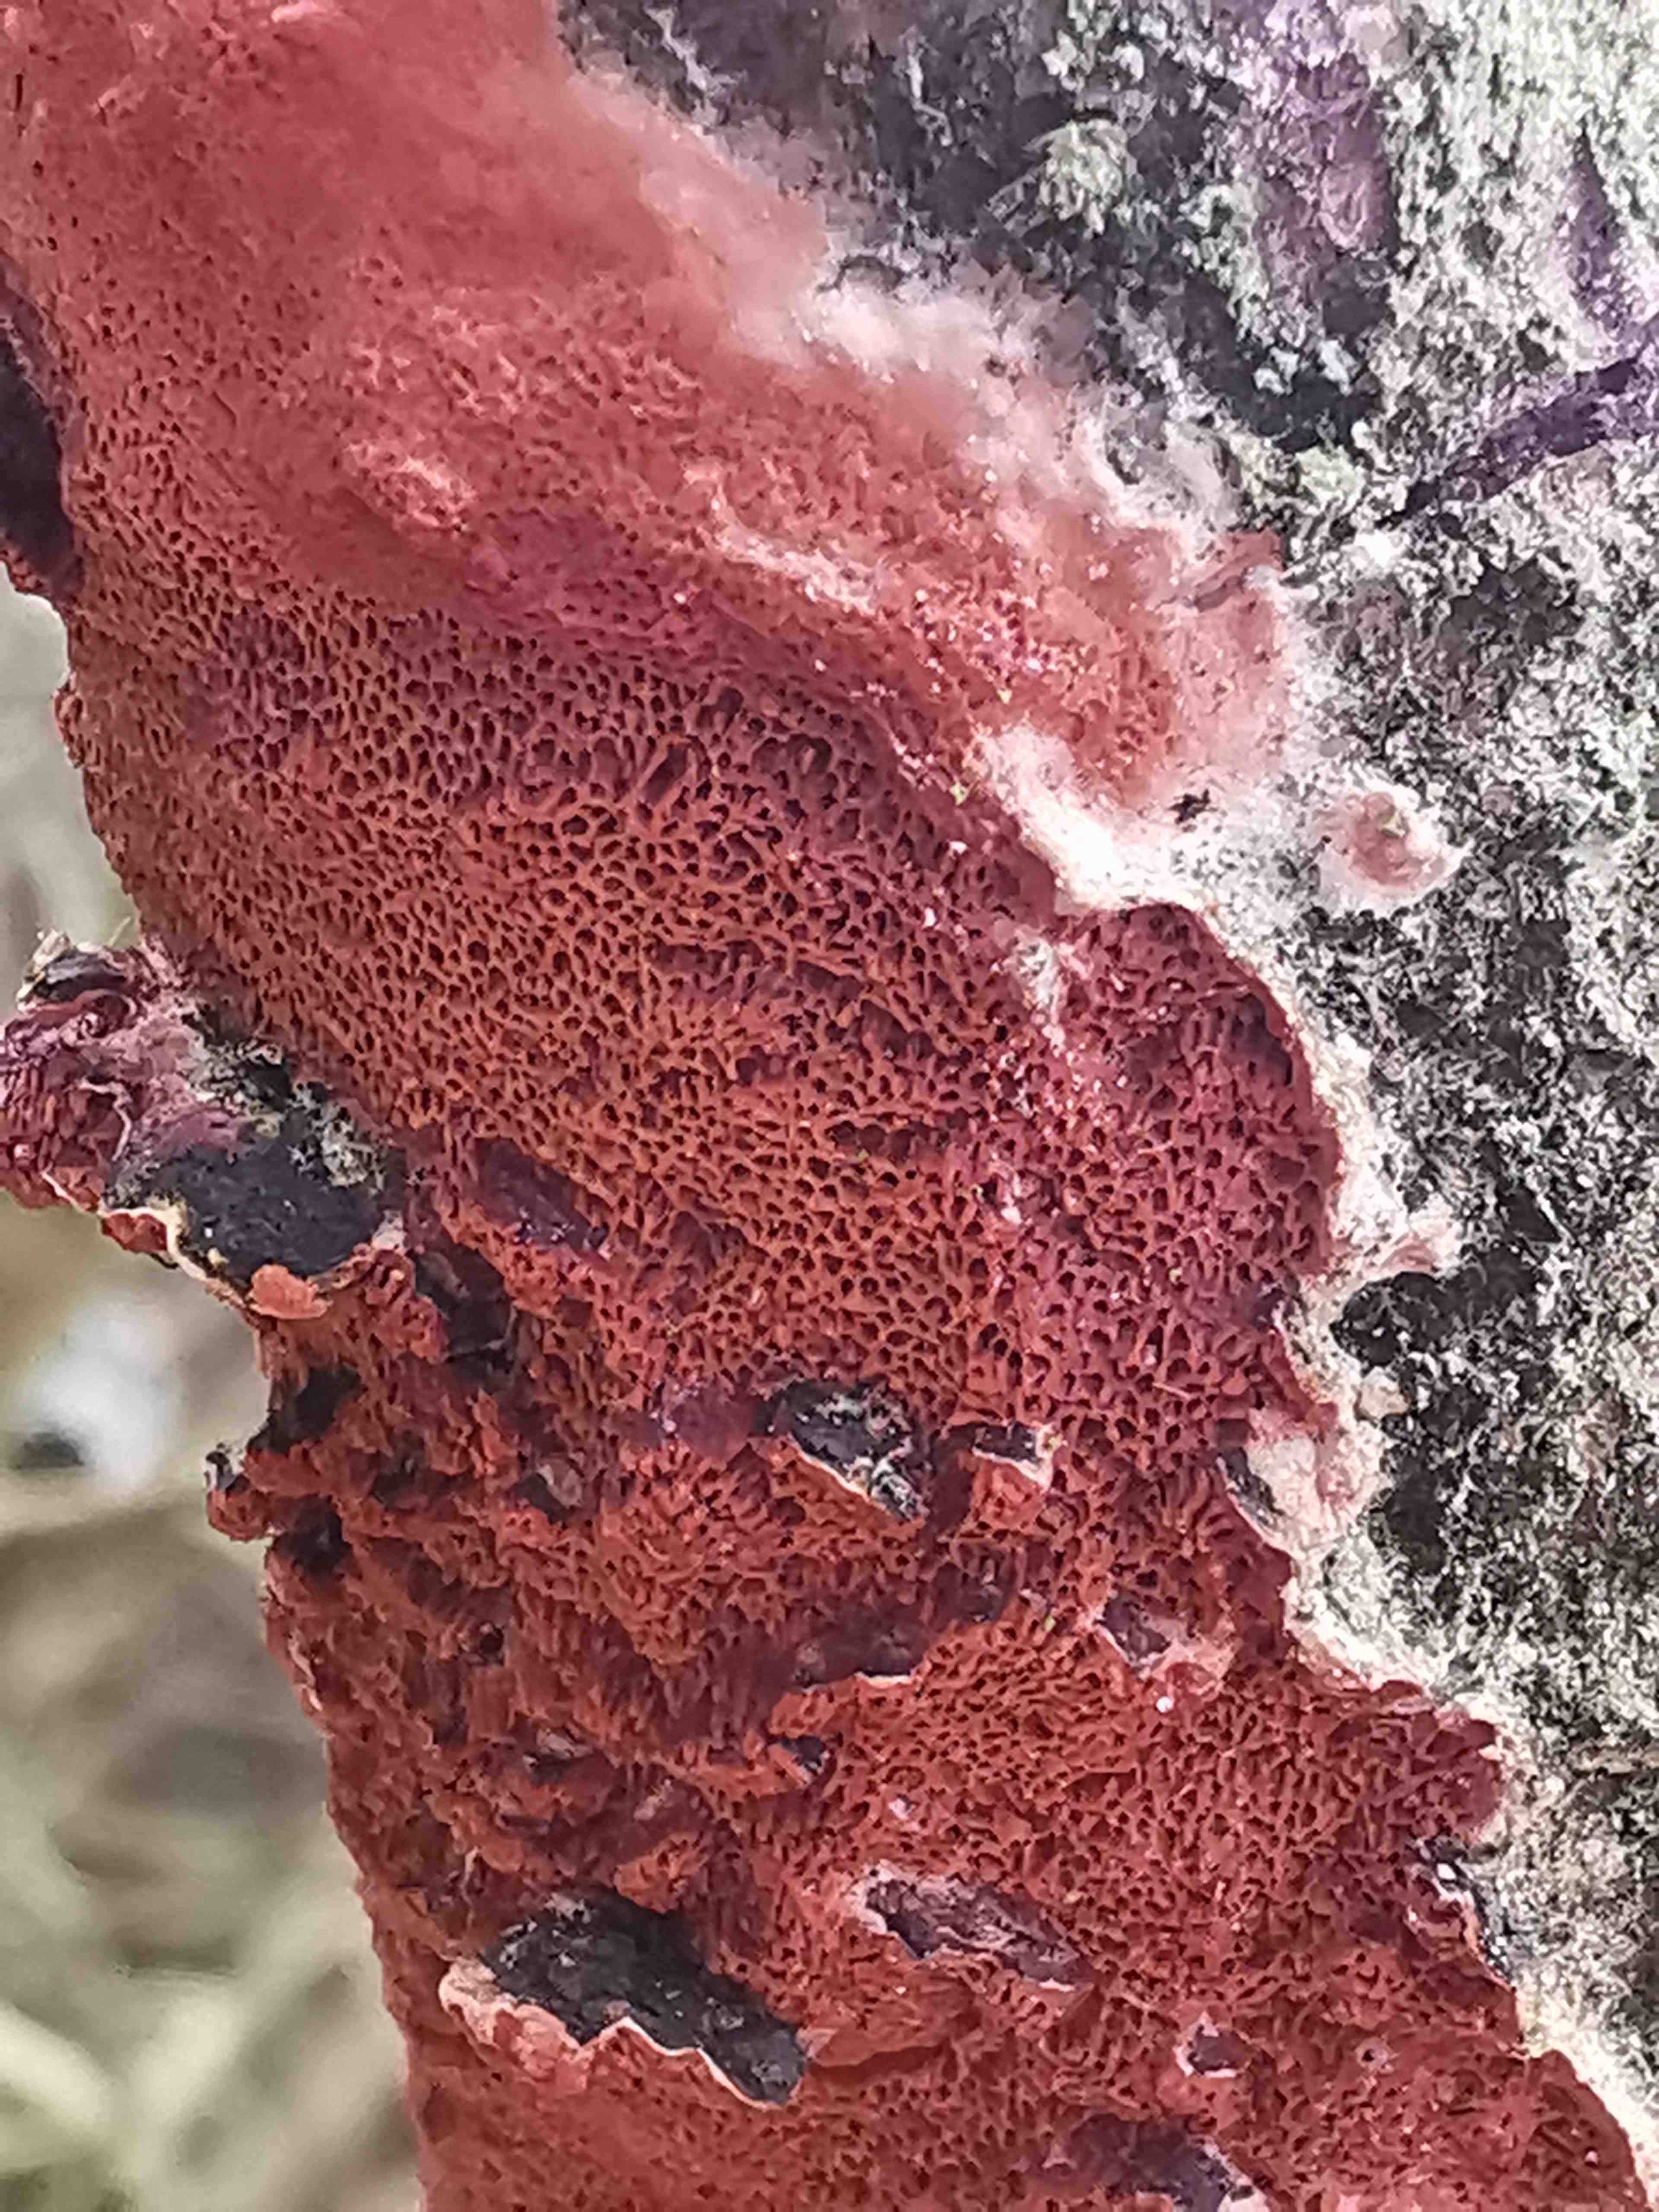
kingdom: Fungi
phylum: Basidiomycota
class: Agaricomycetes
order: Polyporales
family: Irpicaceae
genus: Meruliopsis
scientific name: Meruliopsis taxicola
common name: purpurbrun foldporesvamp
